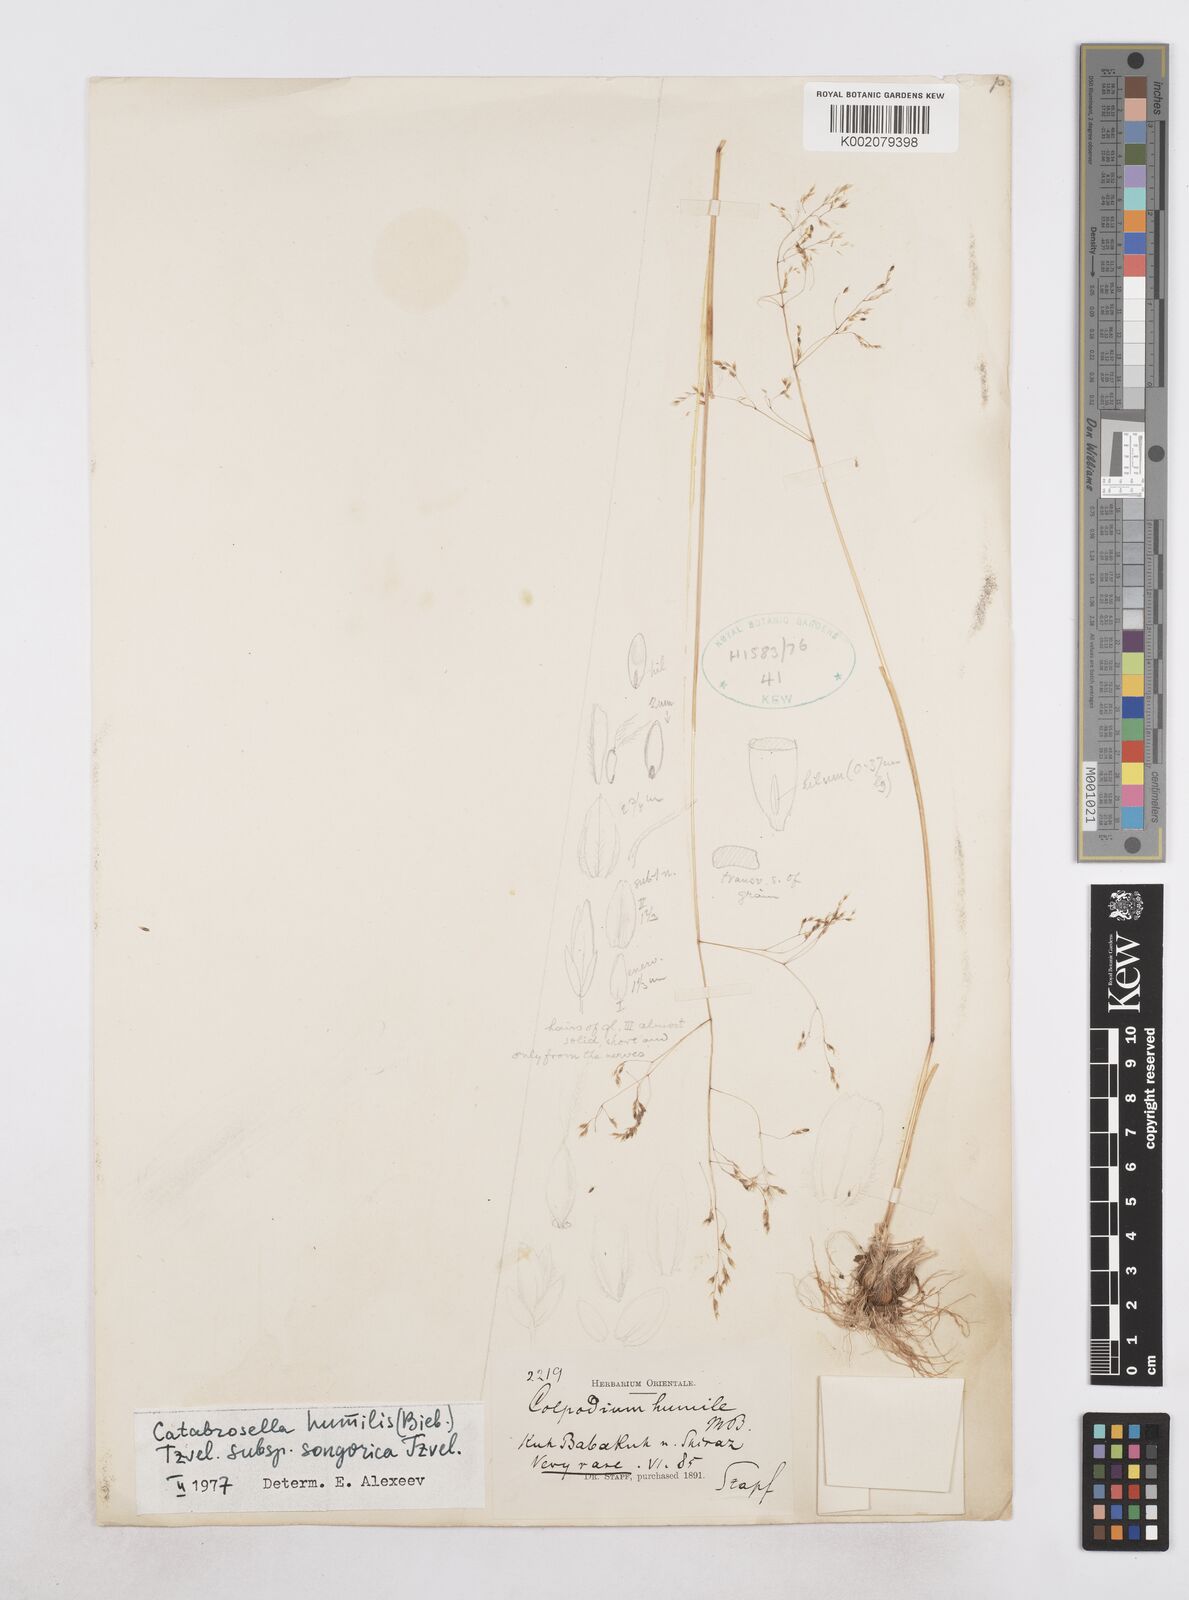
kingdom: Plantae
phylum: Tracheophyta
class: Liliopsida
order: Poales
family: Poaceae
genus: Catabrosella
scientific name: Catabrosella humilis
